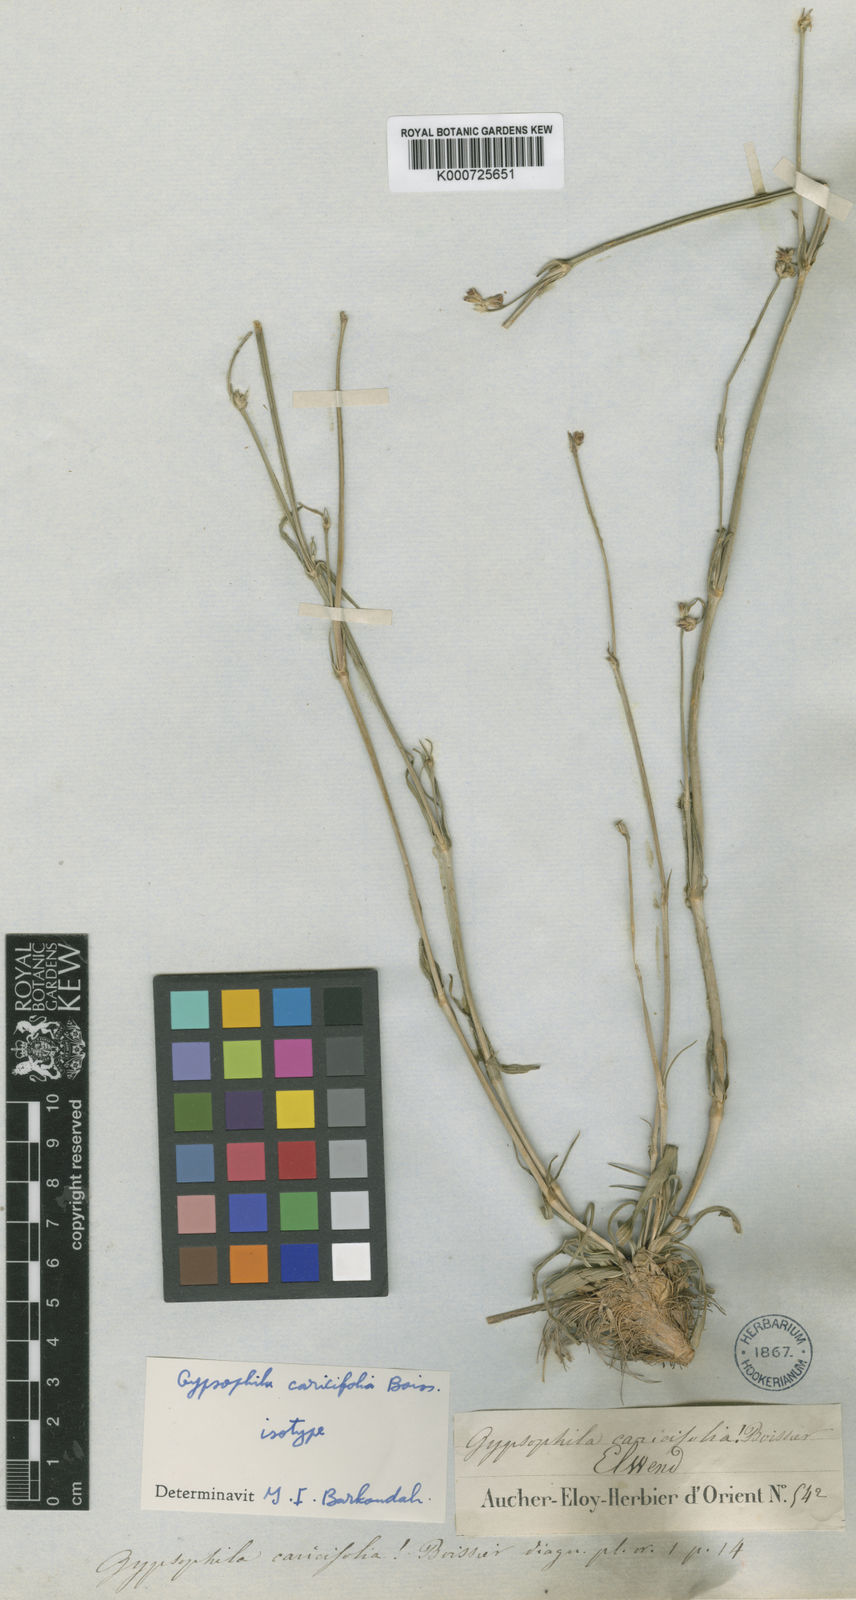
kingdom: Plantae
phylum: Tracheophyta
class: Magnoliopsida
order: Caryophyllales
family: Caryophyllaceae
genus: Gypsophila
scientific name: Gypsophila caricifolia
